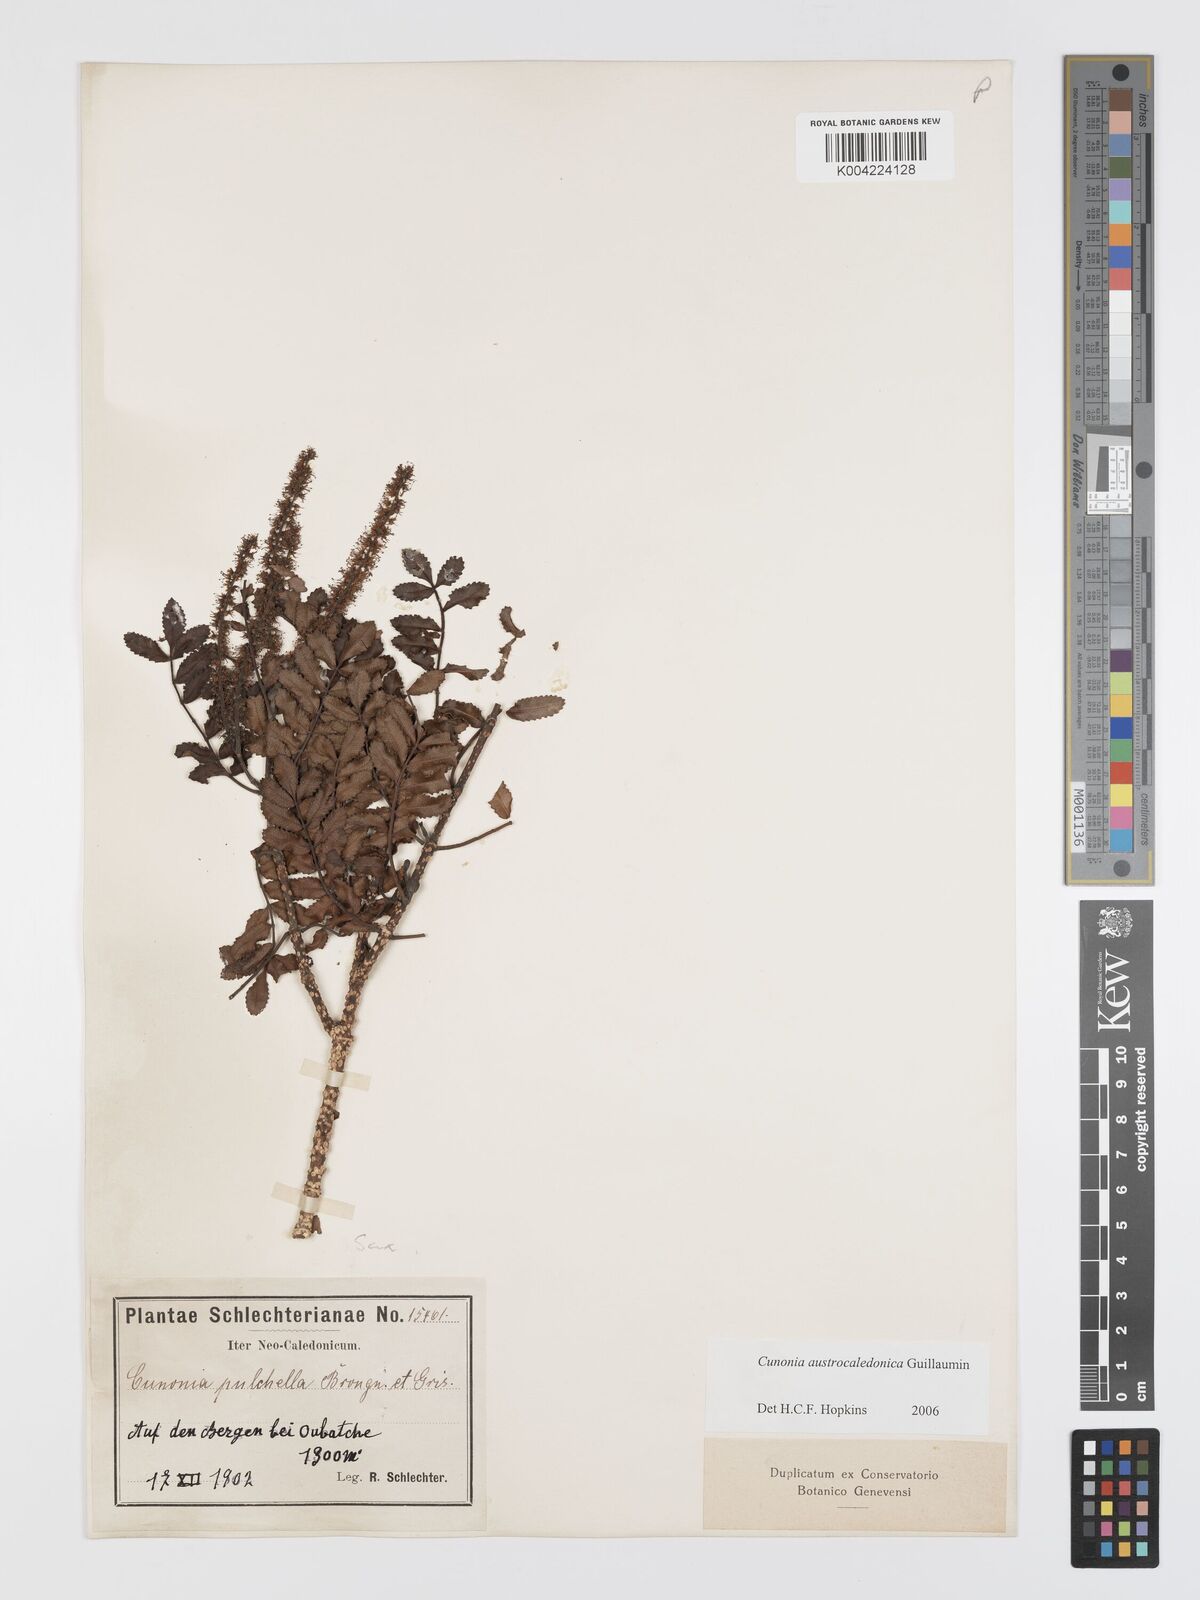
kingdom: Plantae
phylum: Tracheophyta
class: Magnoliopsida
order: Oxalidales
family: Cunoniaceae
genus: Cunonia
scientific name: Cunonia austrocaledonica
